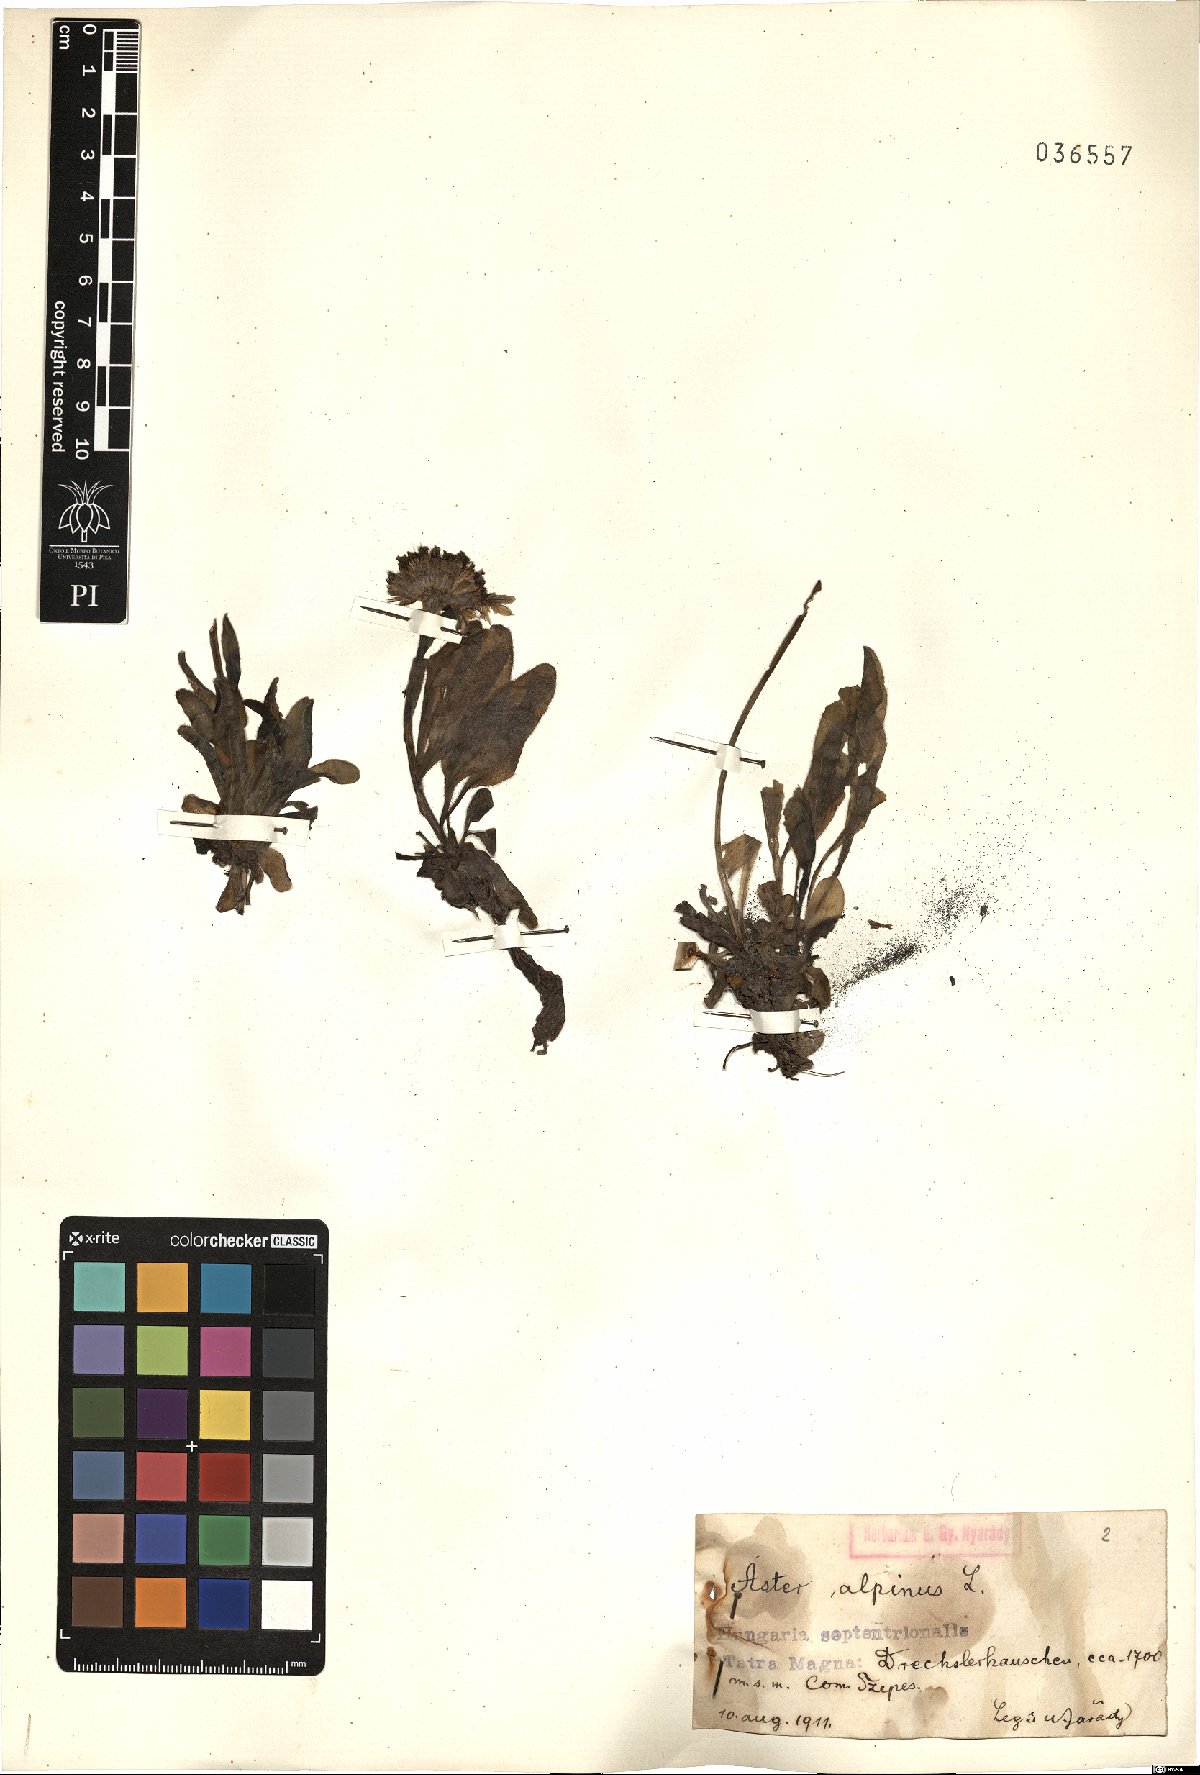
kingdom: Plantae
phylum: Tracheophyta
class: Magnoliopsida
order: Asterales
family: Asteraceae
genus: Aster
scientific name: Aster alpinus
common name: Alpine aster
